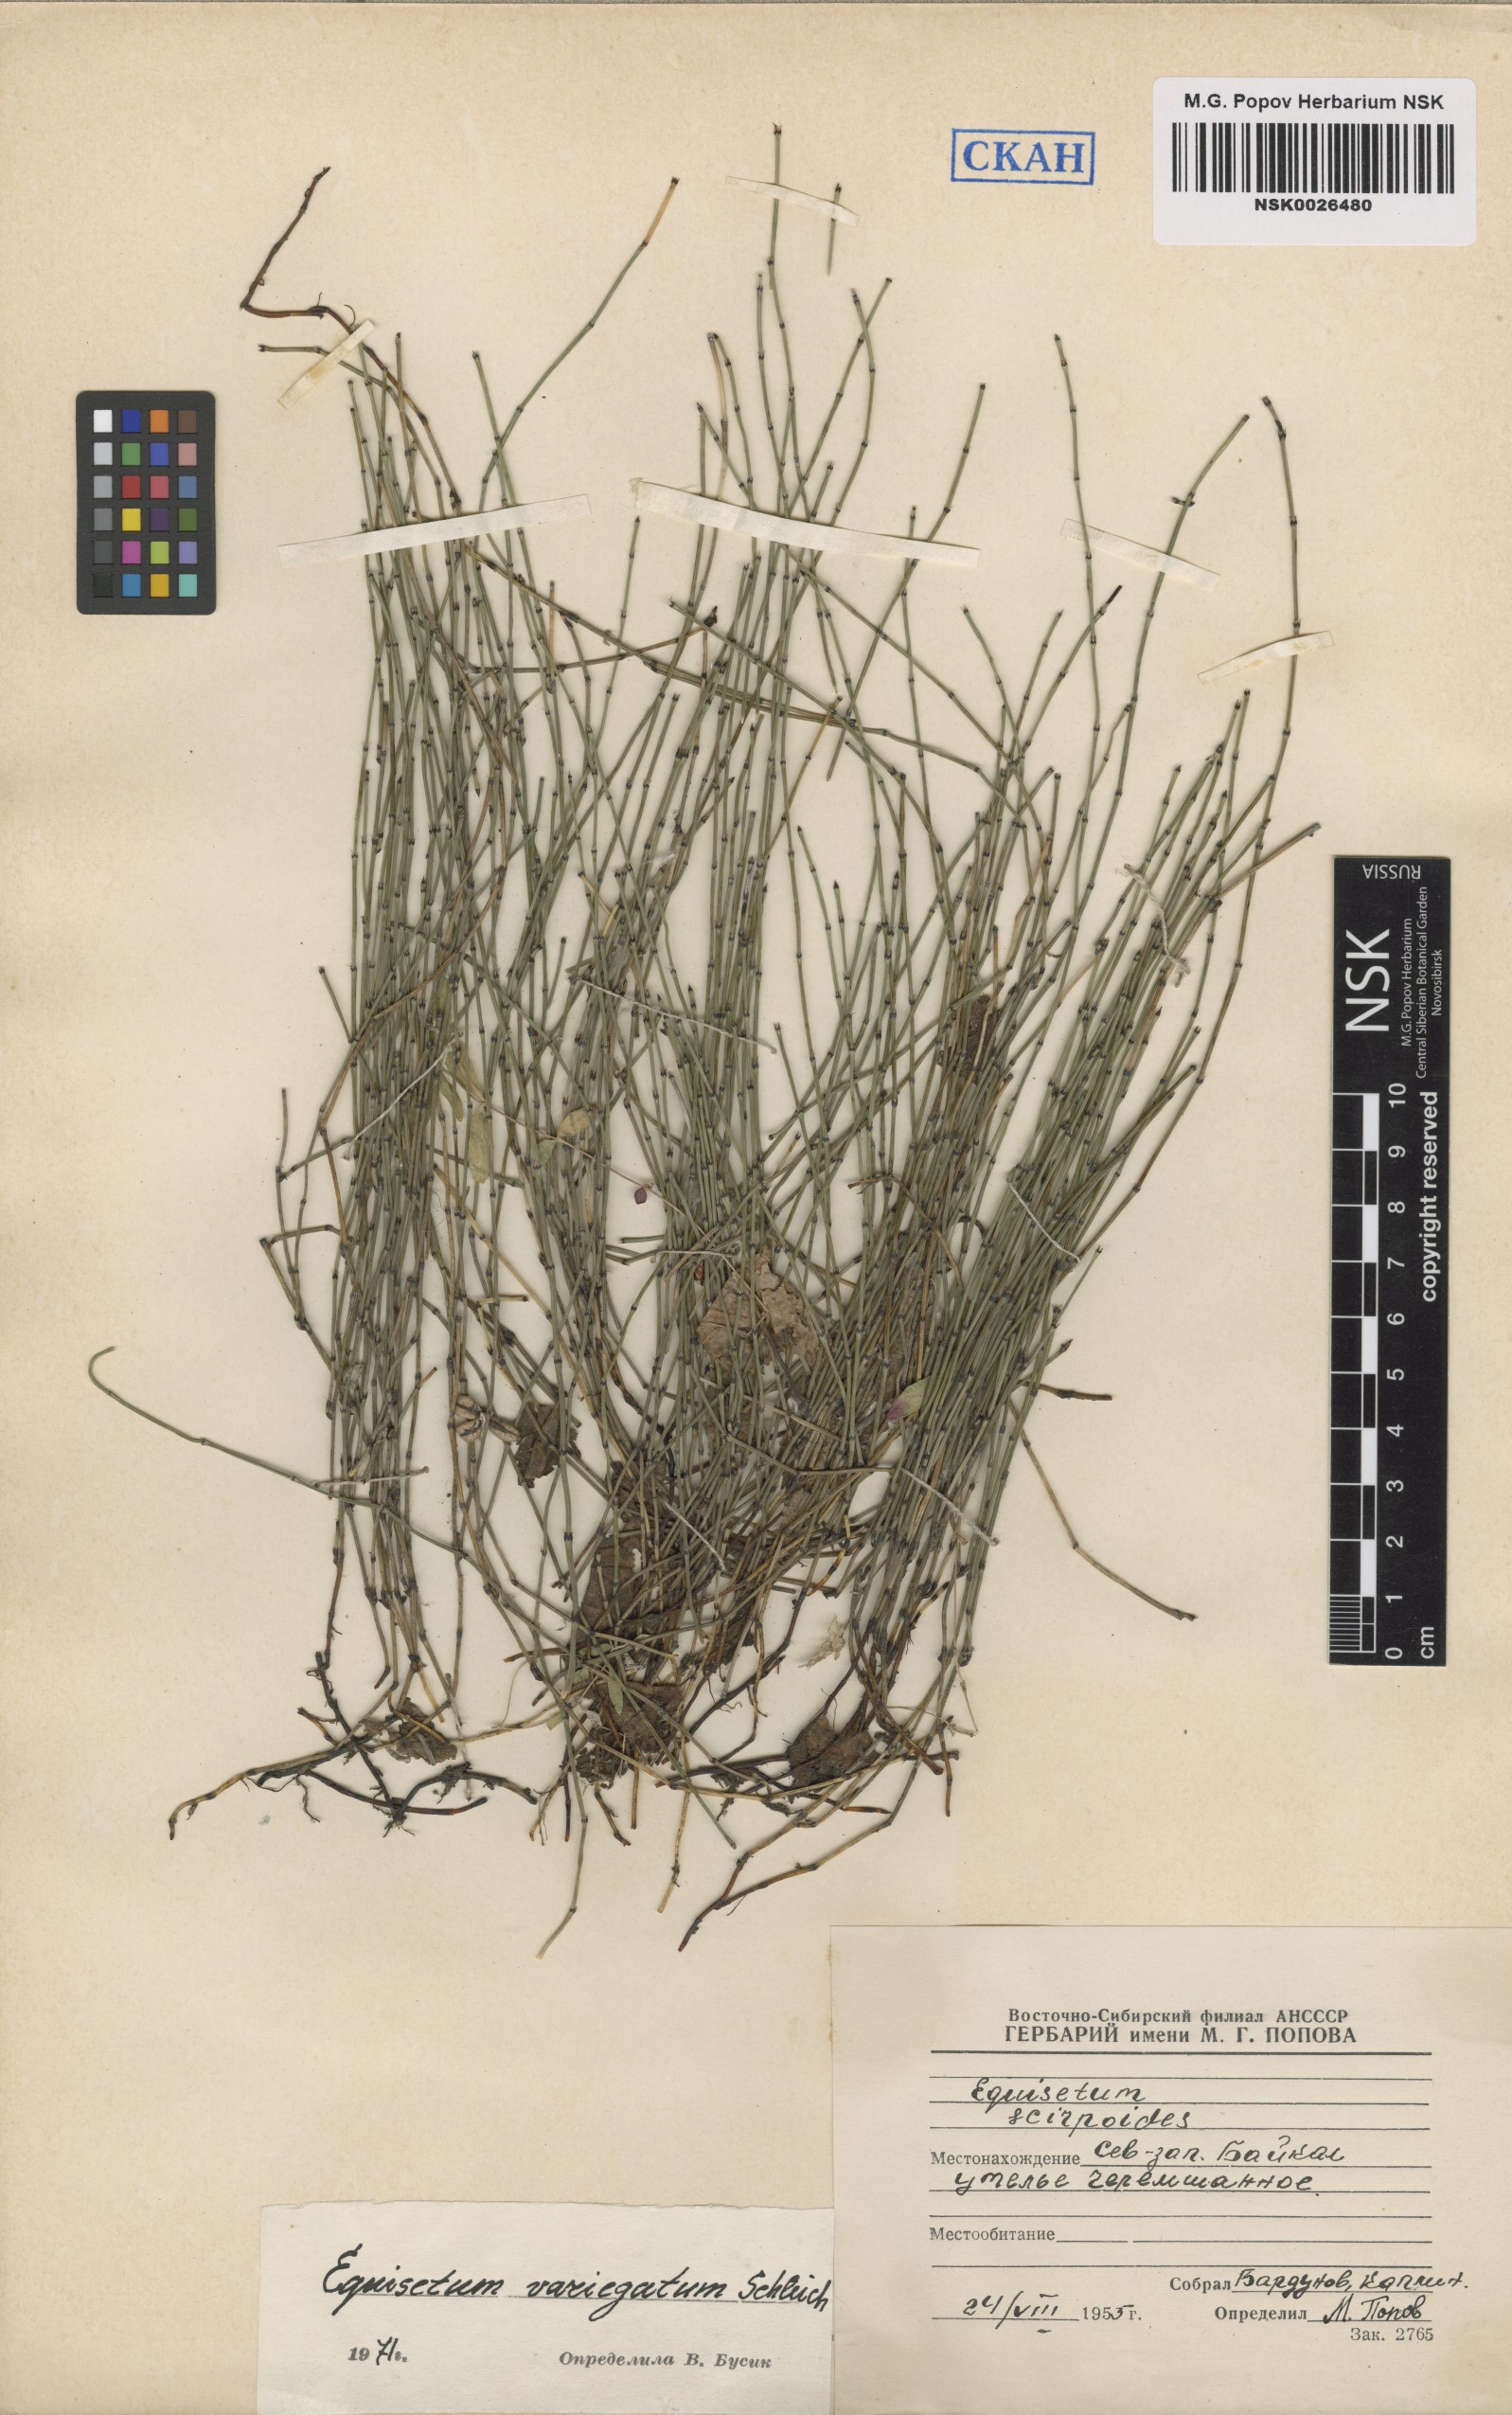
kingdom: Plantae
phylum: Tracheophyta
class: Polypodiopsida
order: Equisetales
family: Equisetaceae
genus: Equisetum
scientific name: Equisetum variegatum
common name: Variegated horsetail
